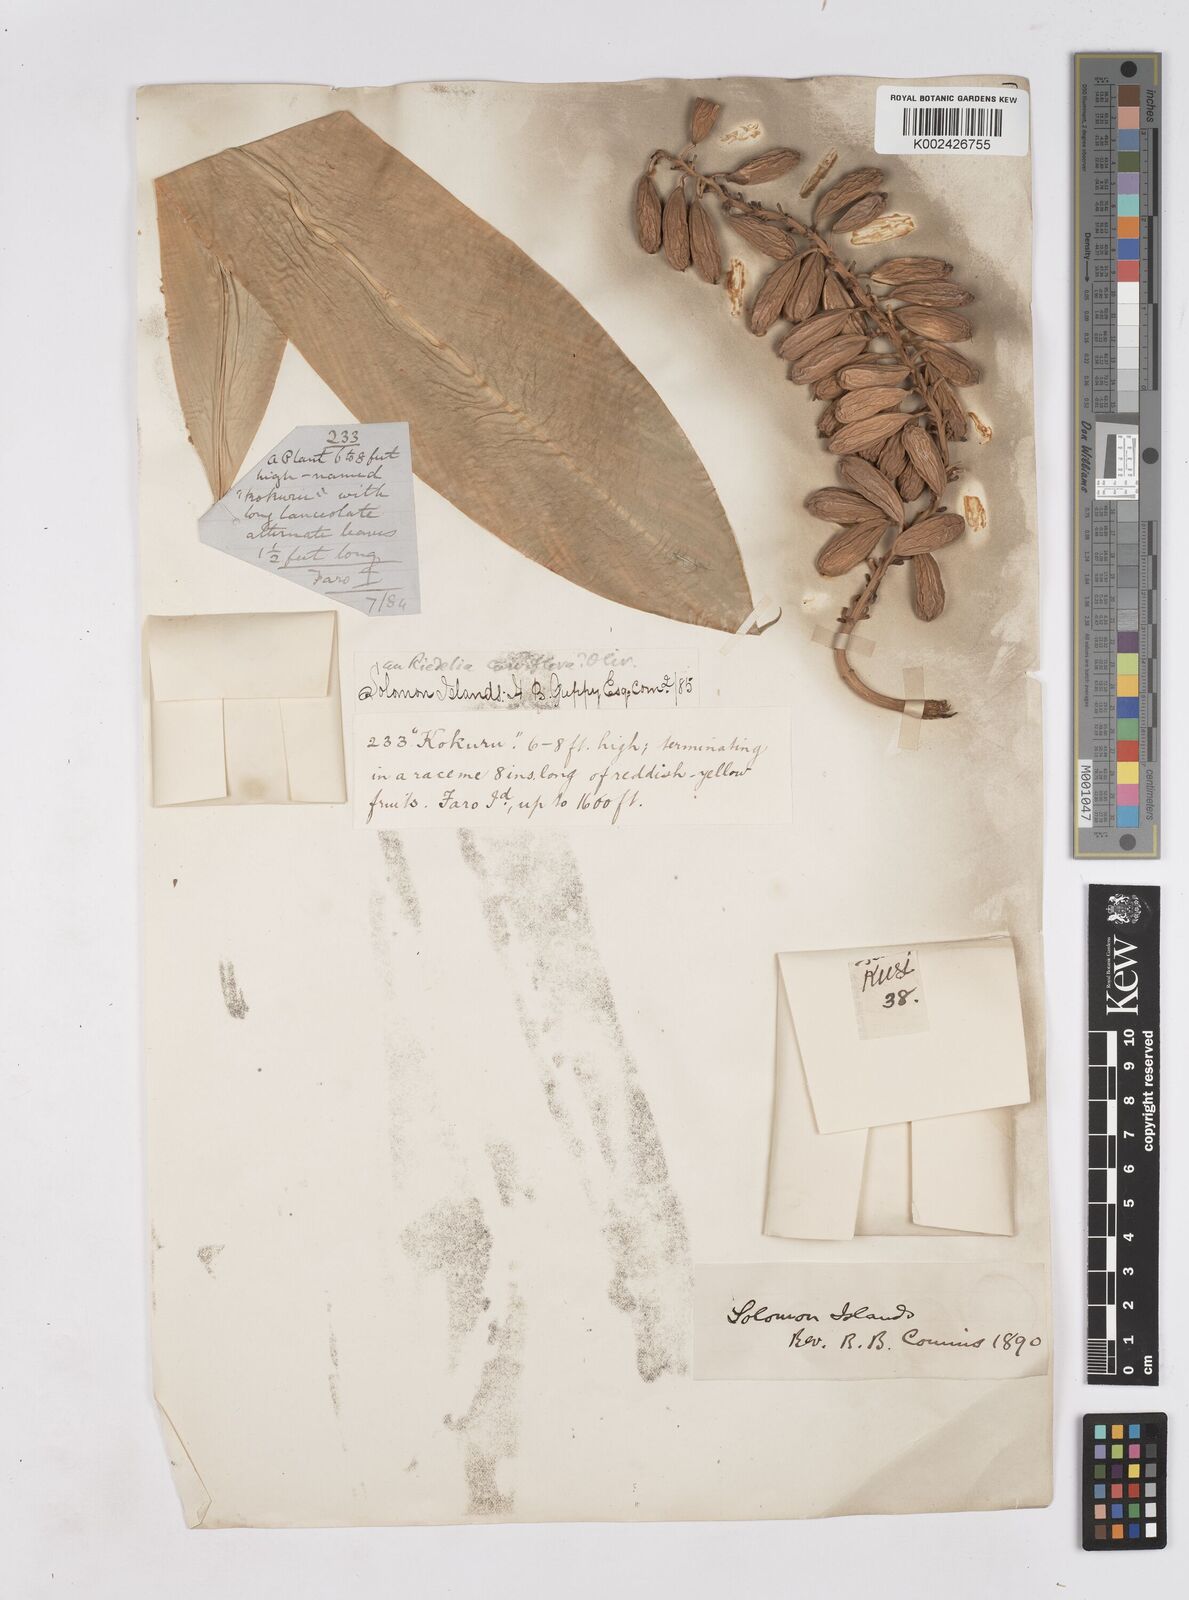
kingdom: Plantae
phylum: Tracheophyta
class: Liliopsida
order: Zingiberales
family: Zingiberaceae
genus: Riedelia
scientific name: Riedelia curviflora
